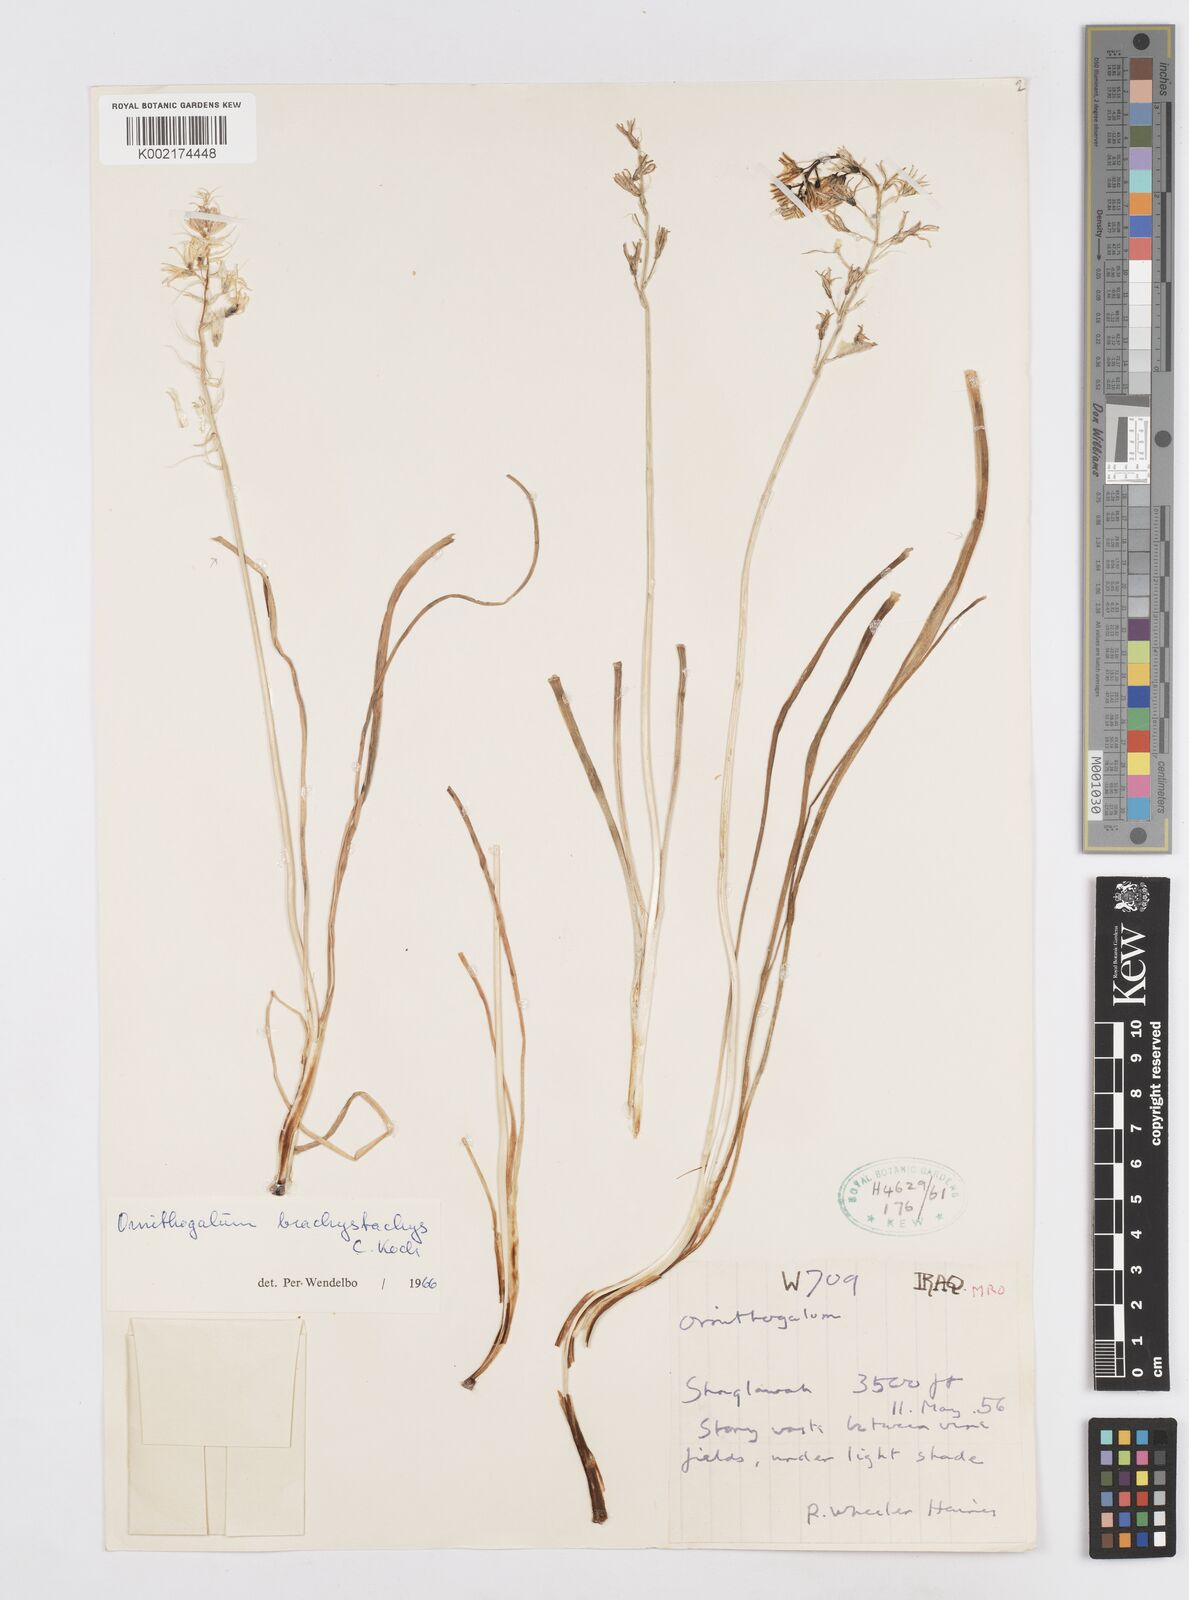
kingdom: Plantae
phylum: Tracheophyta
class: Liliopsida
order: Asparagales
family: Asparagaceae
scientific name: Asparagaceae
